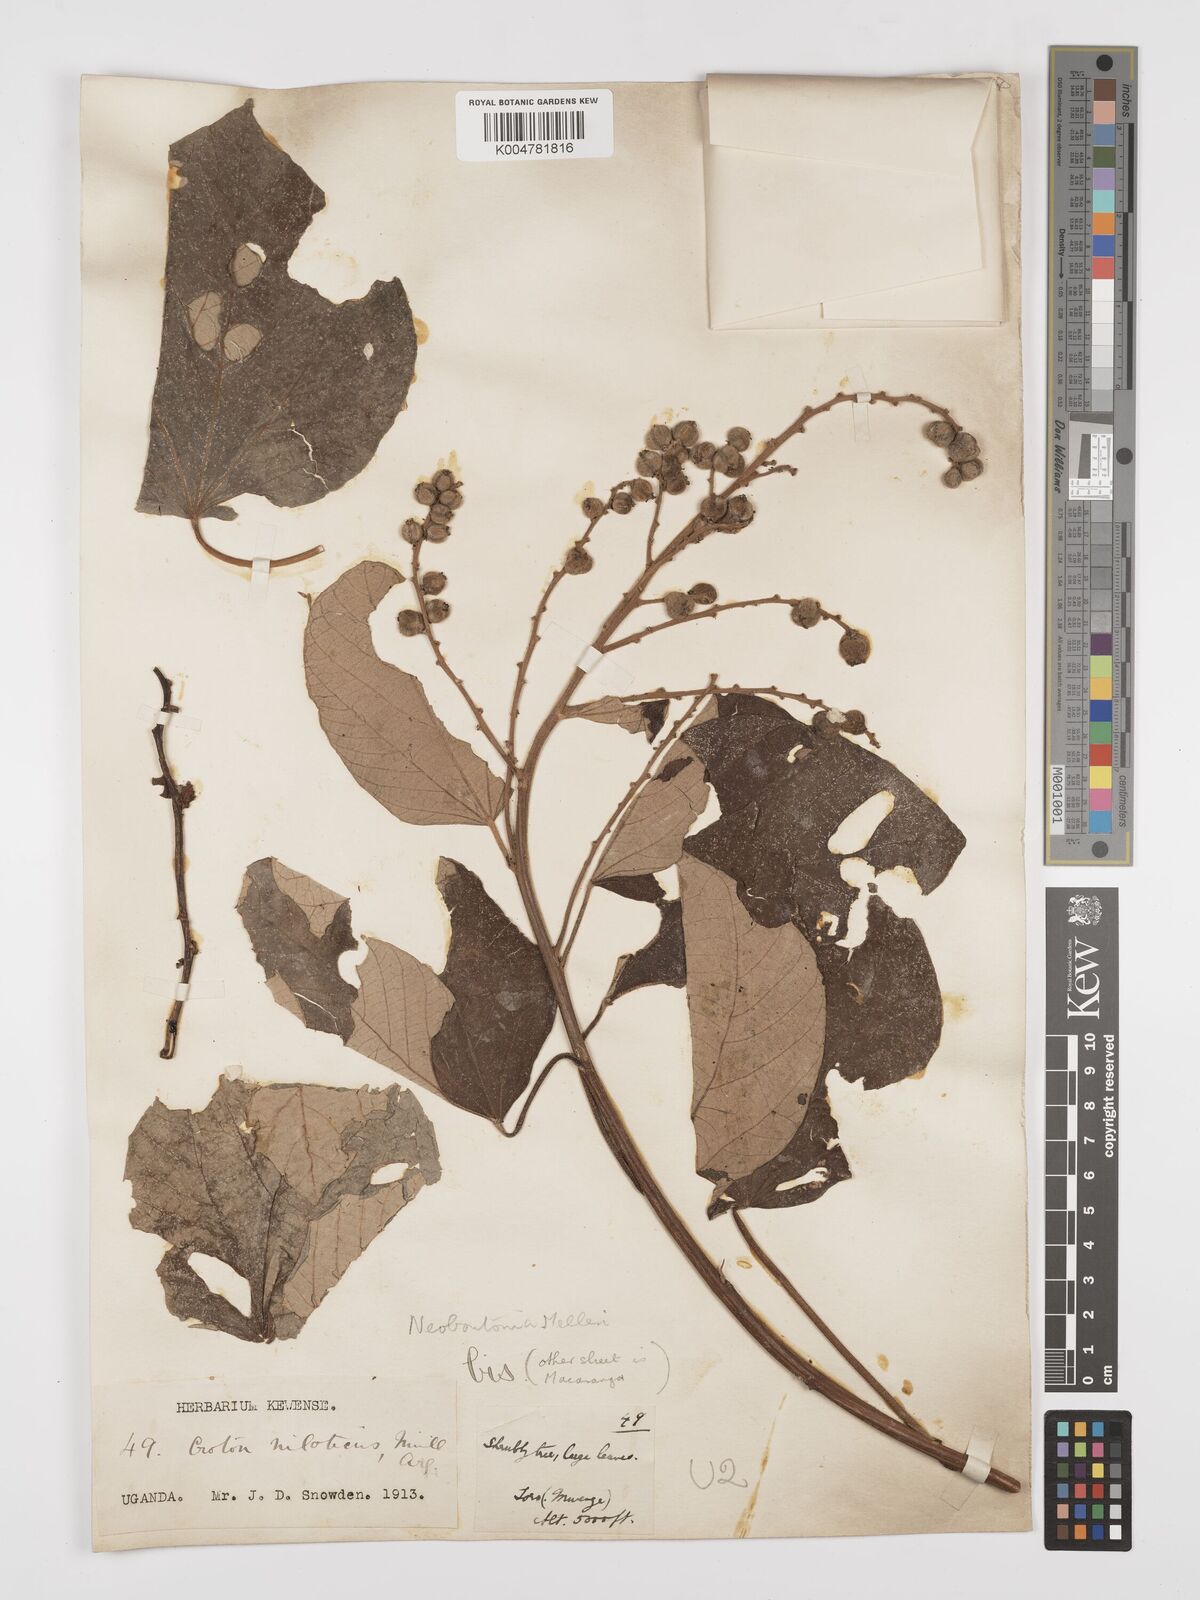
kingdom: Plantae
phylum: Tracheophyta
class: Magnoliopsida
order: Malpighiales
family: Euphorbiaceae
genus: Neoboutonia
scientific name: Neoboutonia melleri
